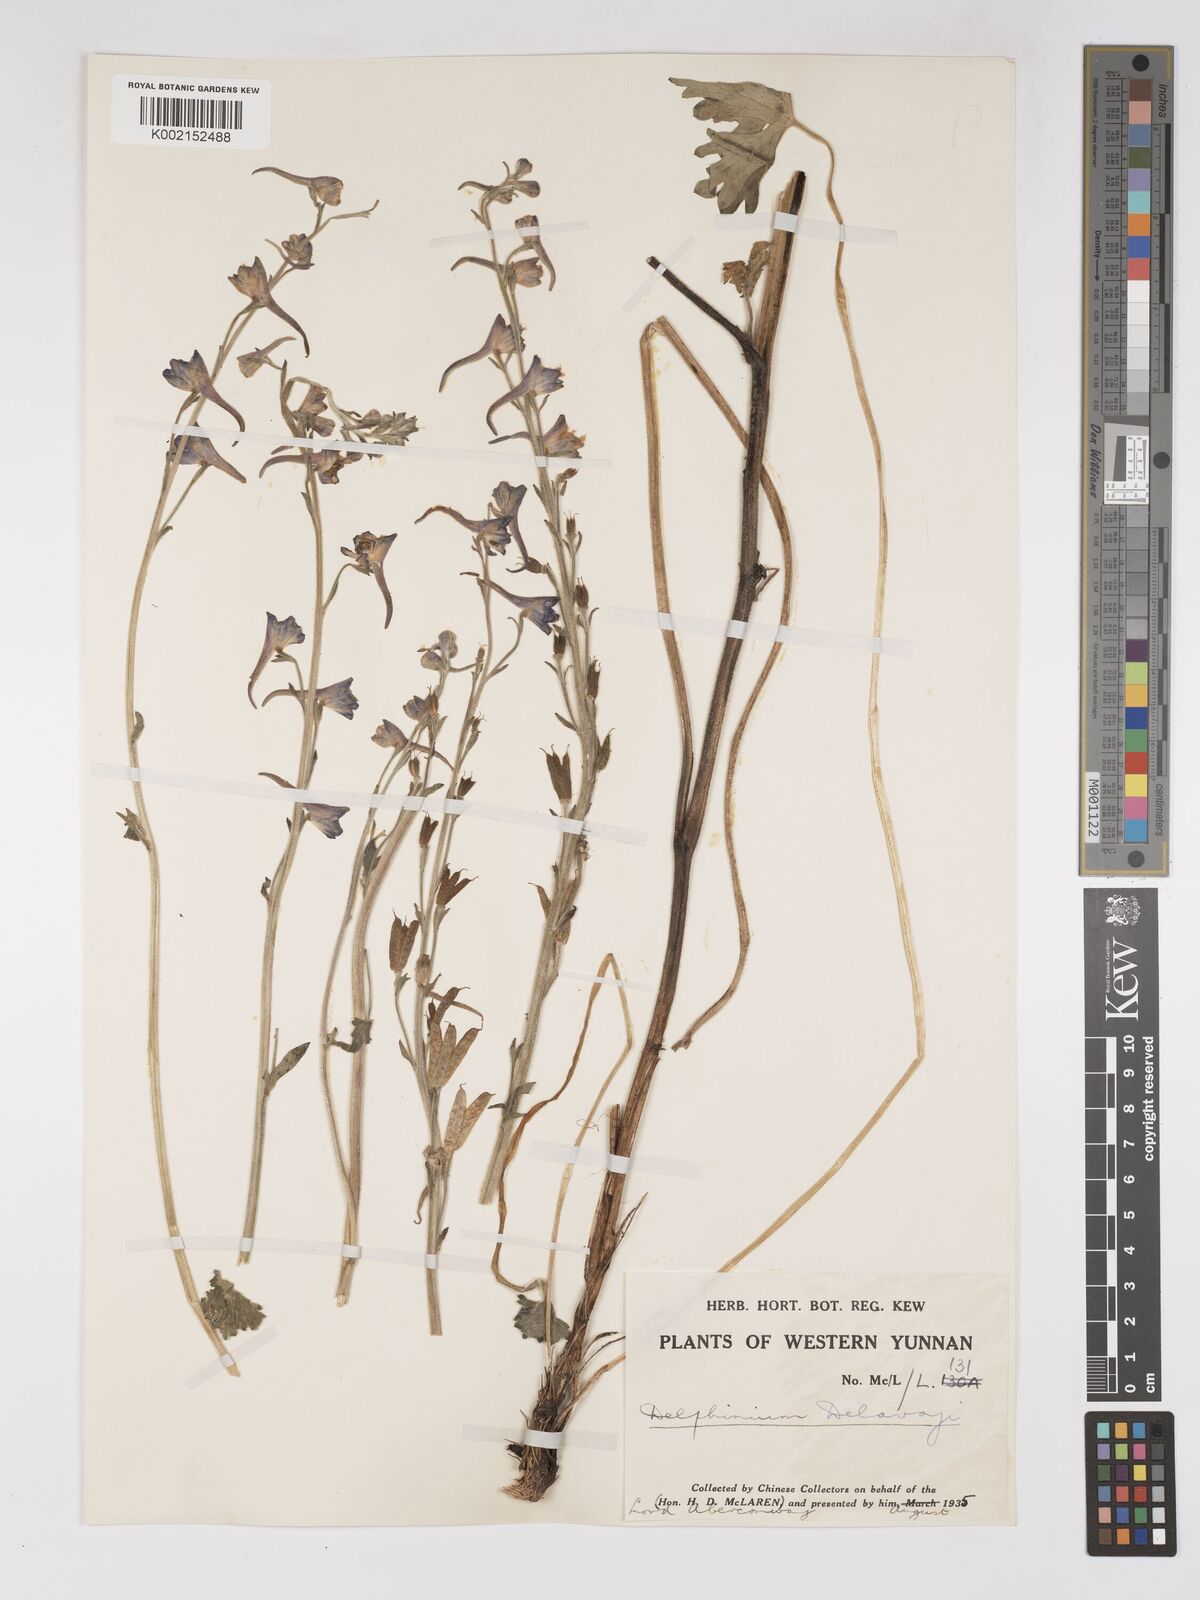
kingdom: Plantae
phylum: Tracheophyta
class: Magnoliopsida
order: Ranunculales
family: Ranunculaceae
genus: Delphinium
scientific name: Delphinium delavayi
